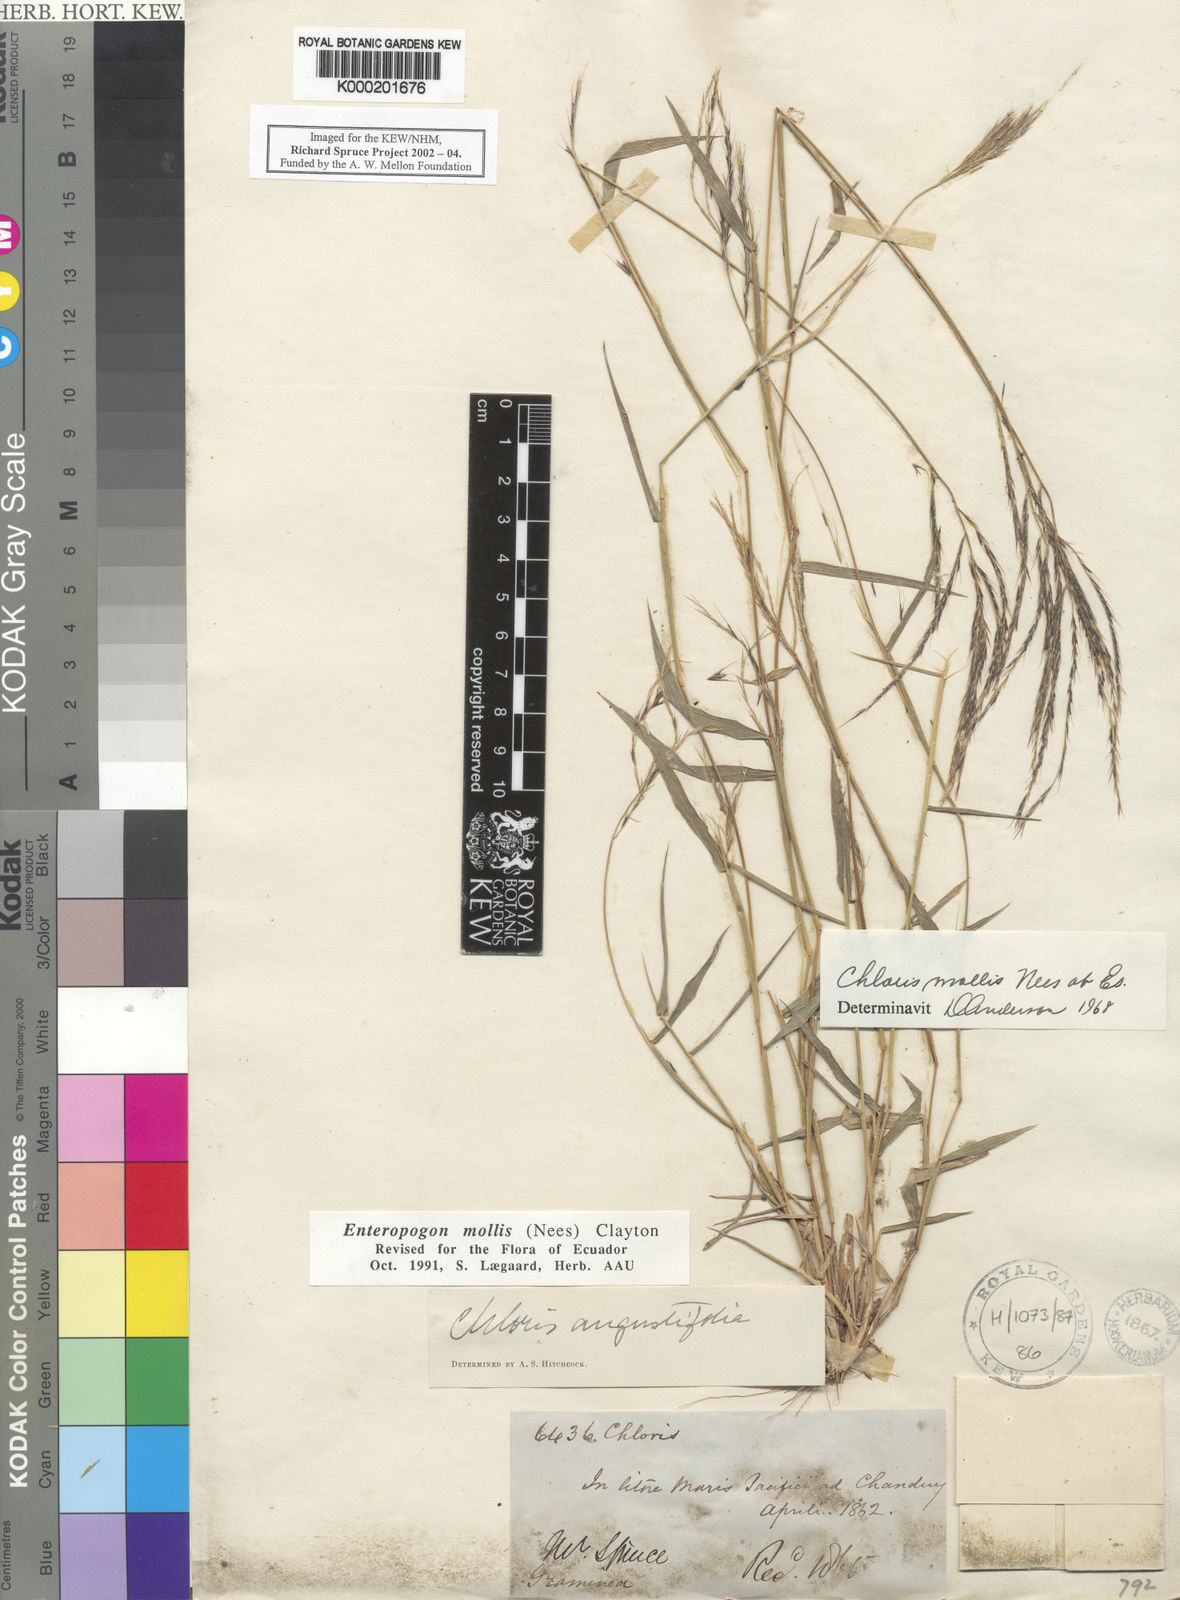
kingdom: Plantae
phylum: Tracheophyta
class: Liliopsida
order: Poales
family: Poaceae
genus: Leptochloa
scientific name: Leptochloa anisopoda
